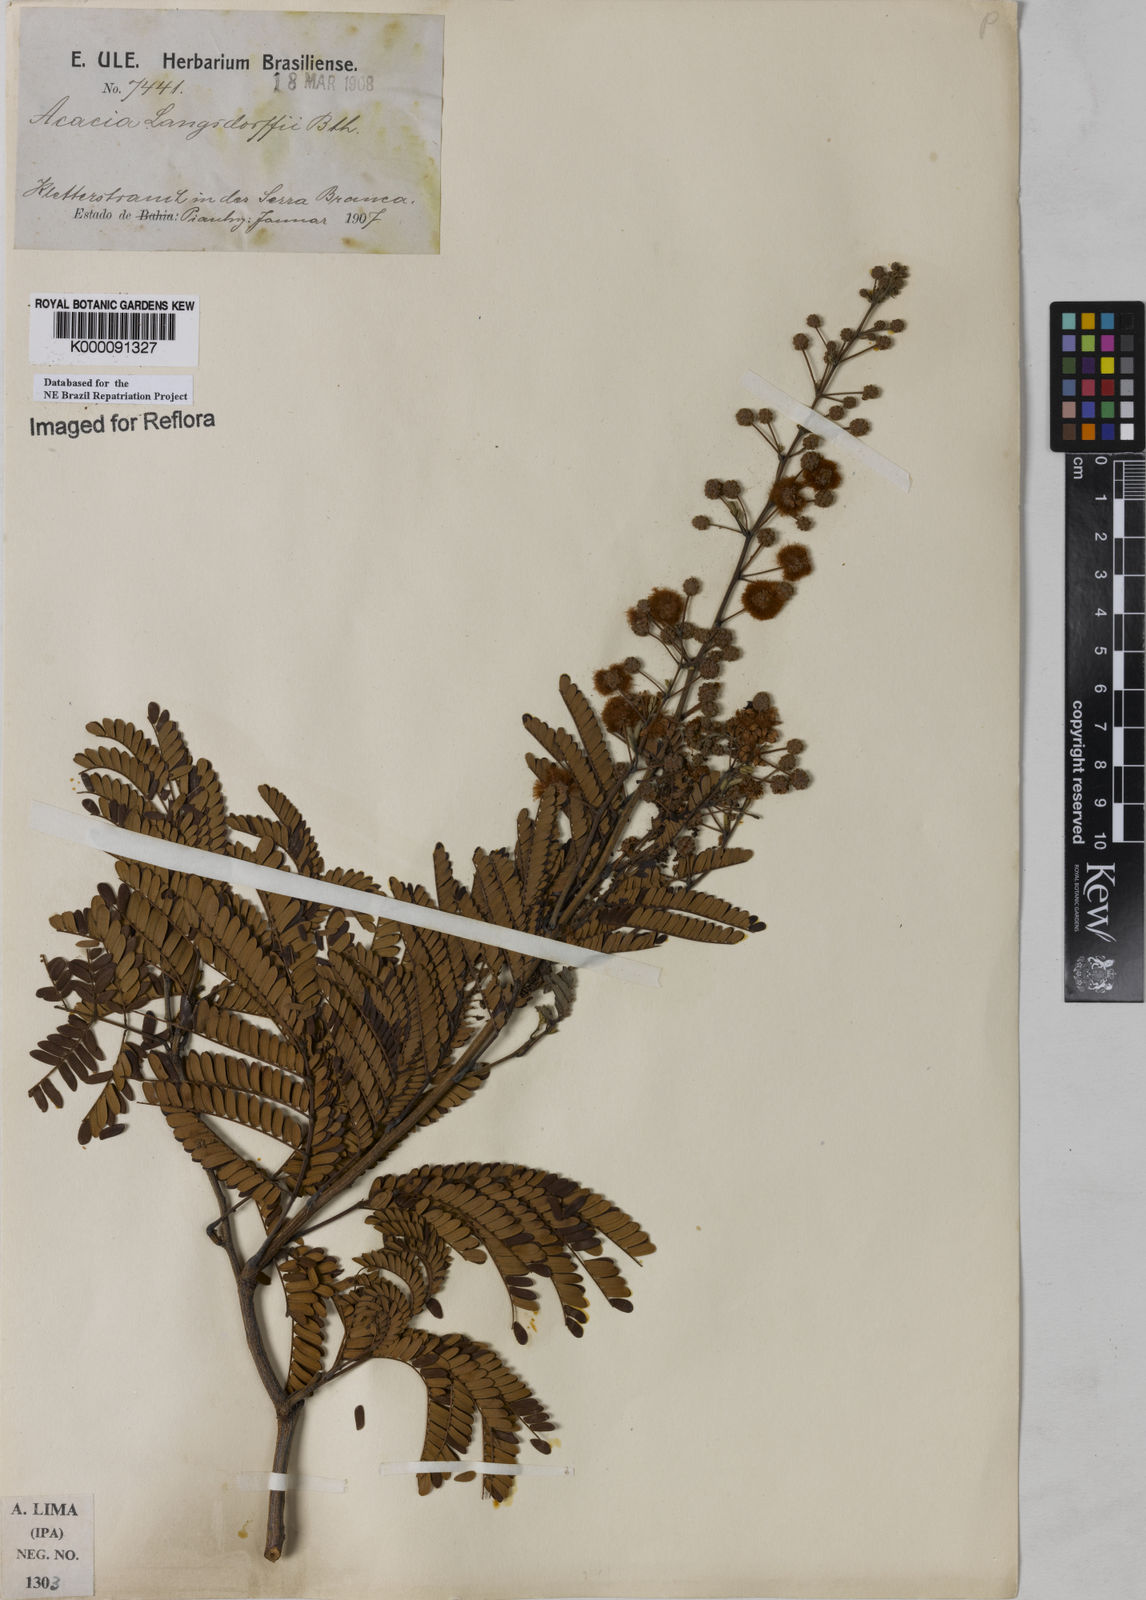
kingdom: Plantae
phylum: Tracheophyta
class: Magnoliopsida
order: Fabales
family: Fabaceae
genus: Senegalia
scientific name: Senegalia langsdorffii
